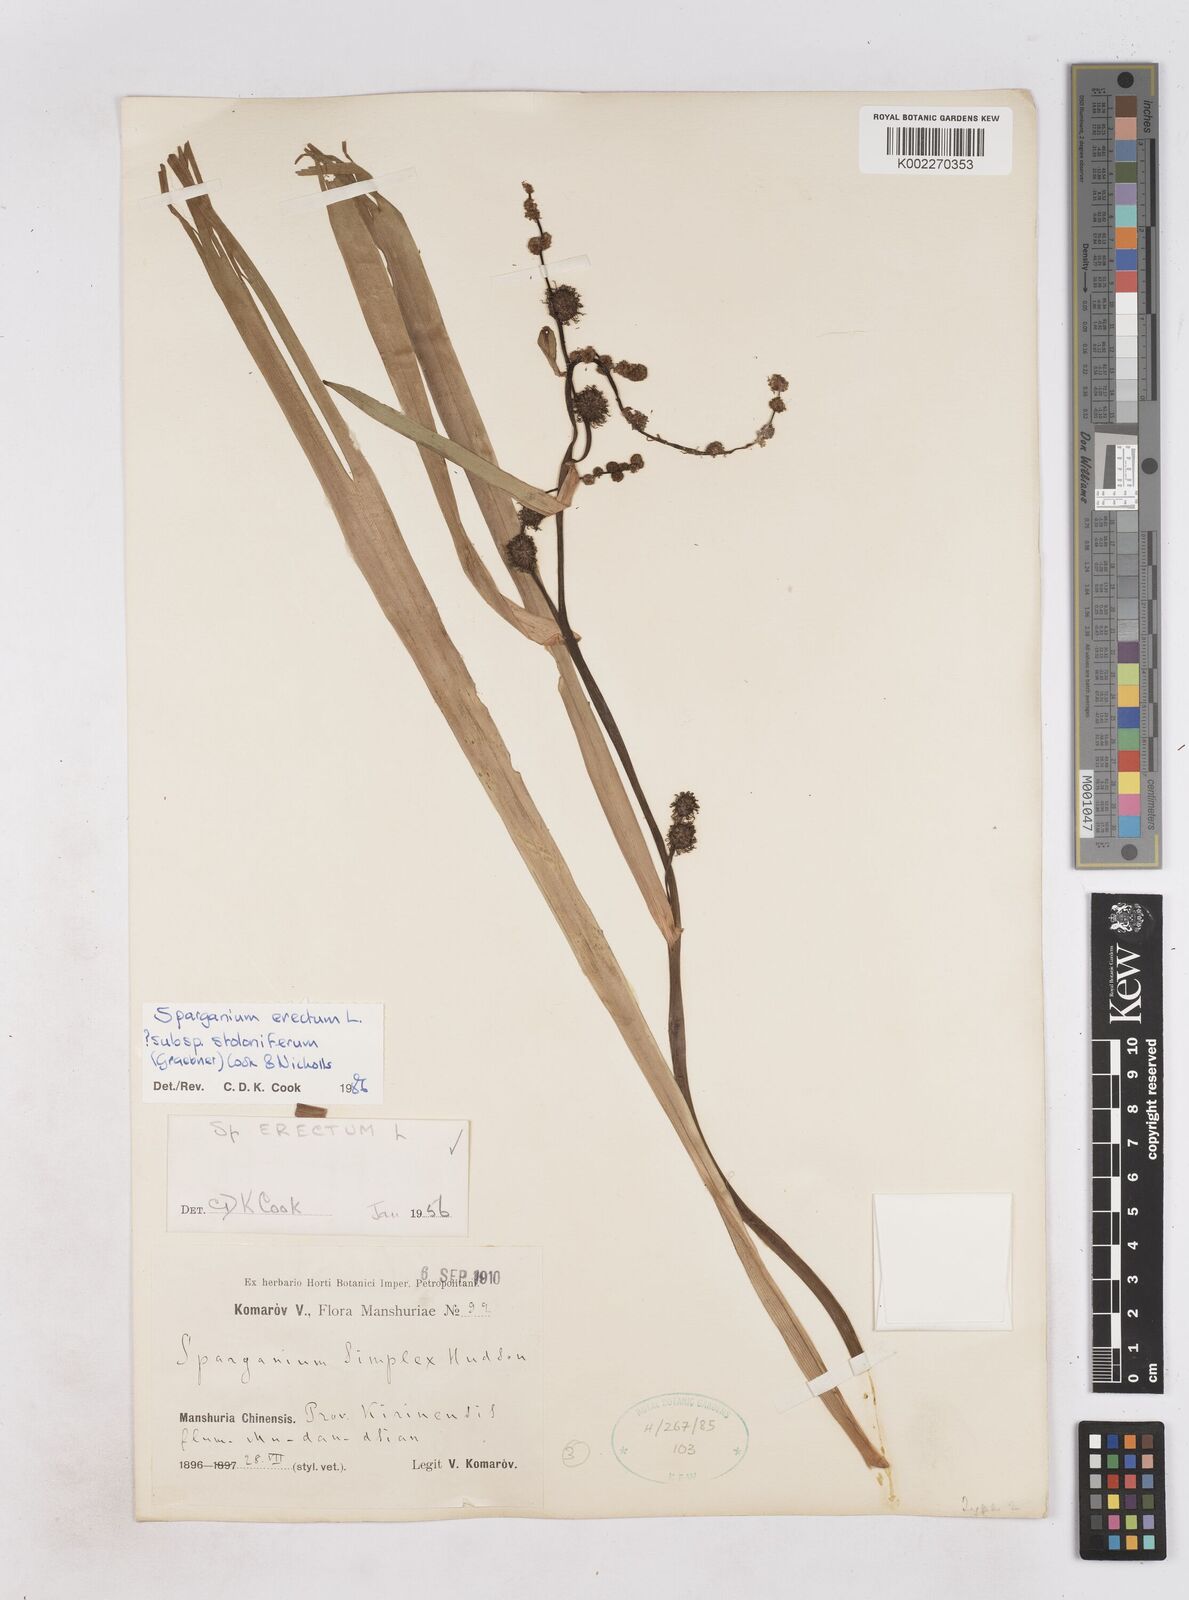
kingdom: Plantae
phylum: Tracheophyta
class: Liliopsida
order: Poales
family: Typhaceae
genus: Sparganium
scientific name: Sparganium stoloniferum
